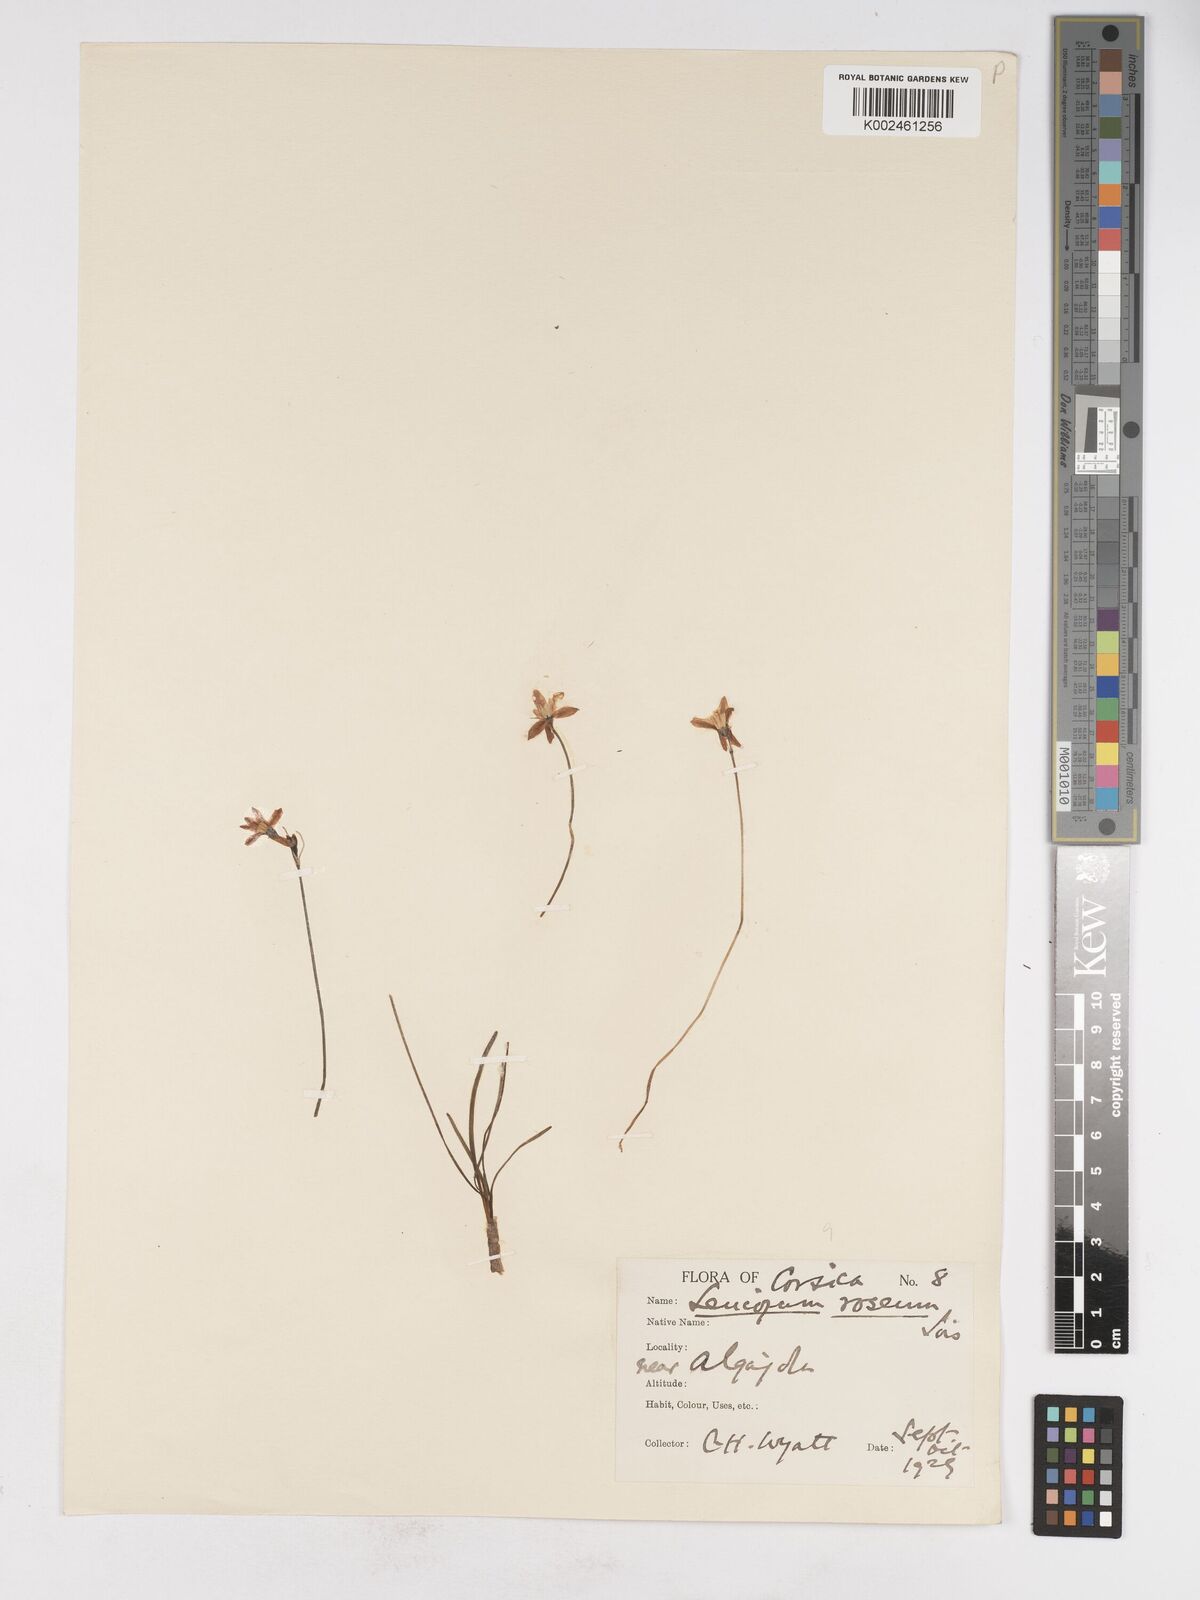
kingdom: Plantae
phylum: Tracheophyta
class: Liliopsida
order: Asparagales
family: Amaryllidaceae
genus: Acis
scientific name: Acis rosea
